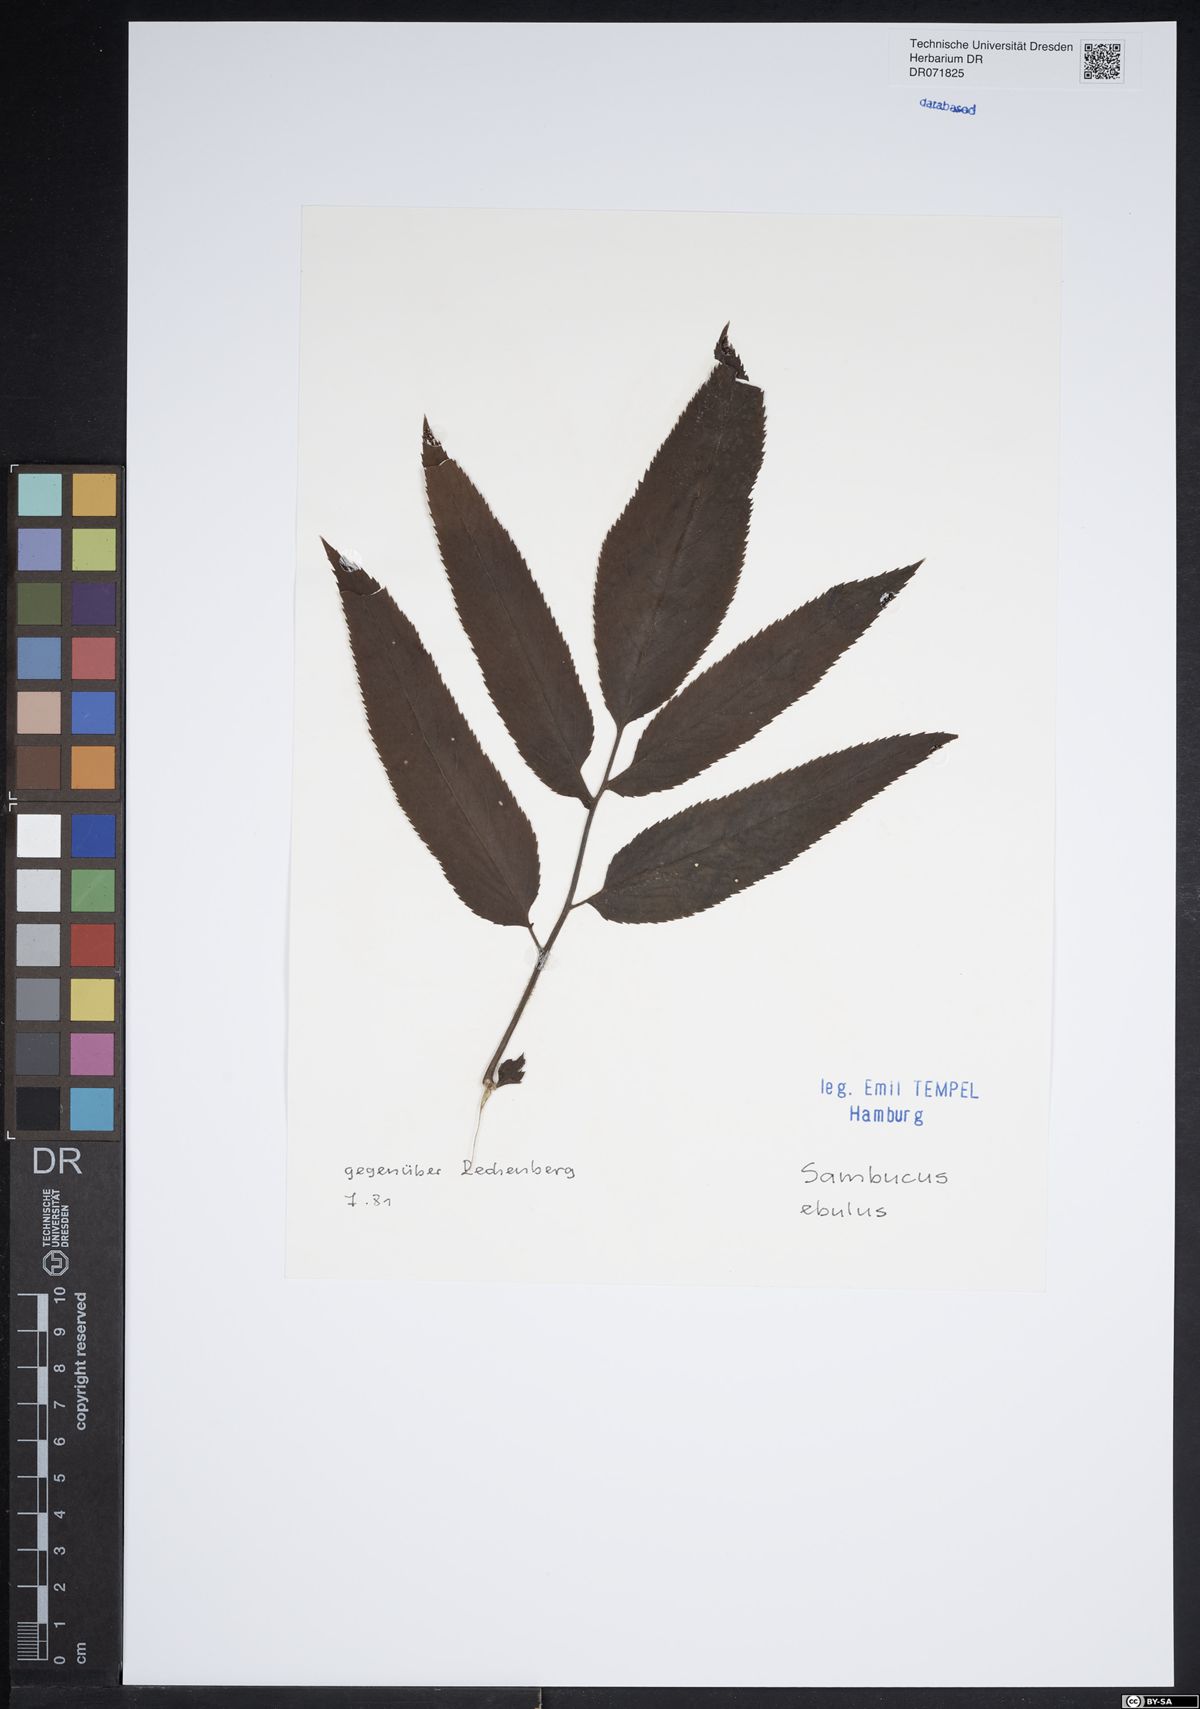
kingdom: Plantae
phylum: Tracheophyta
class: Magnoliopsida
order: Dipsacales
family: Viburnaceae
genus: Sambucus
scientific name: Sambucus ebulus
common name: Dwarf elder
